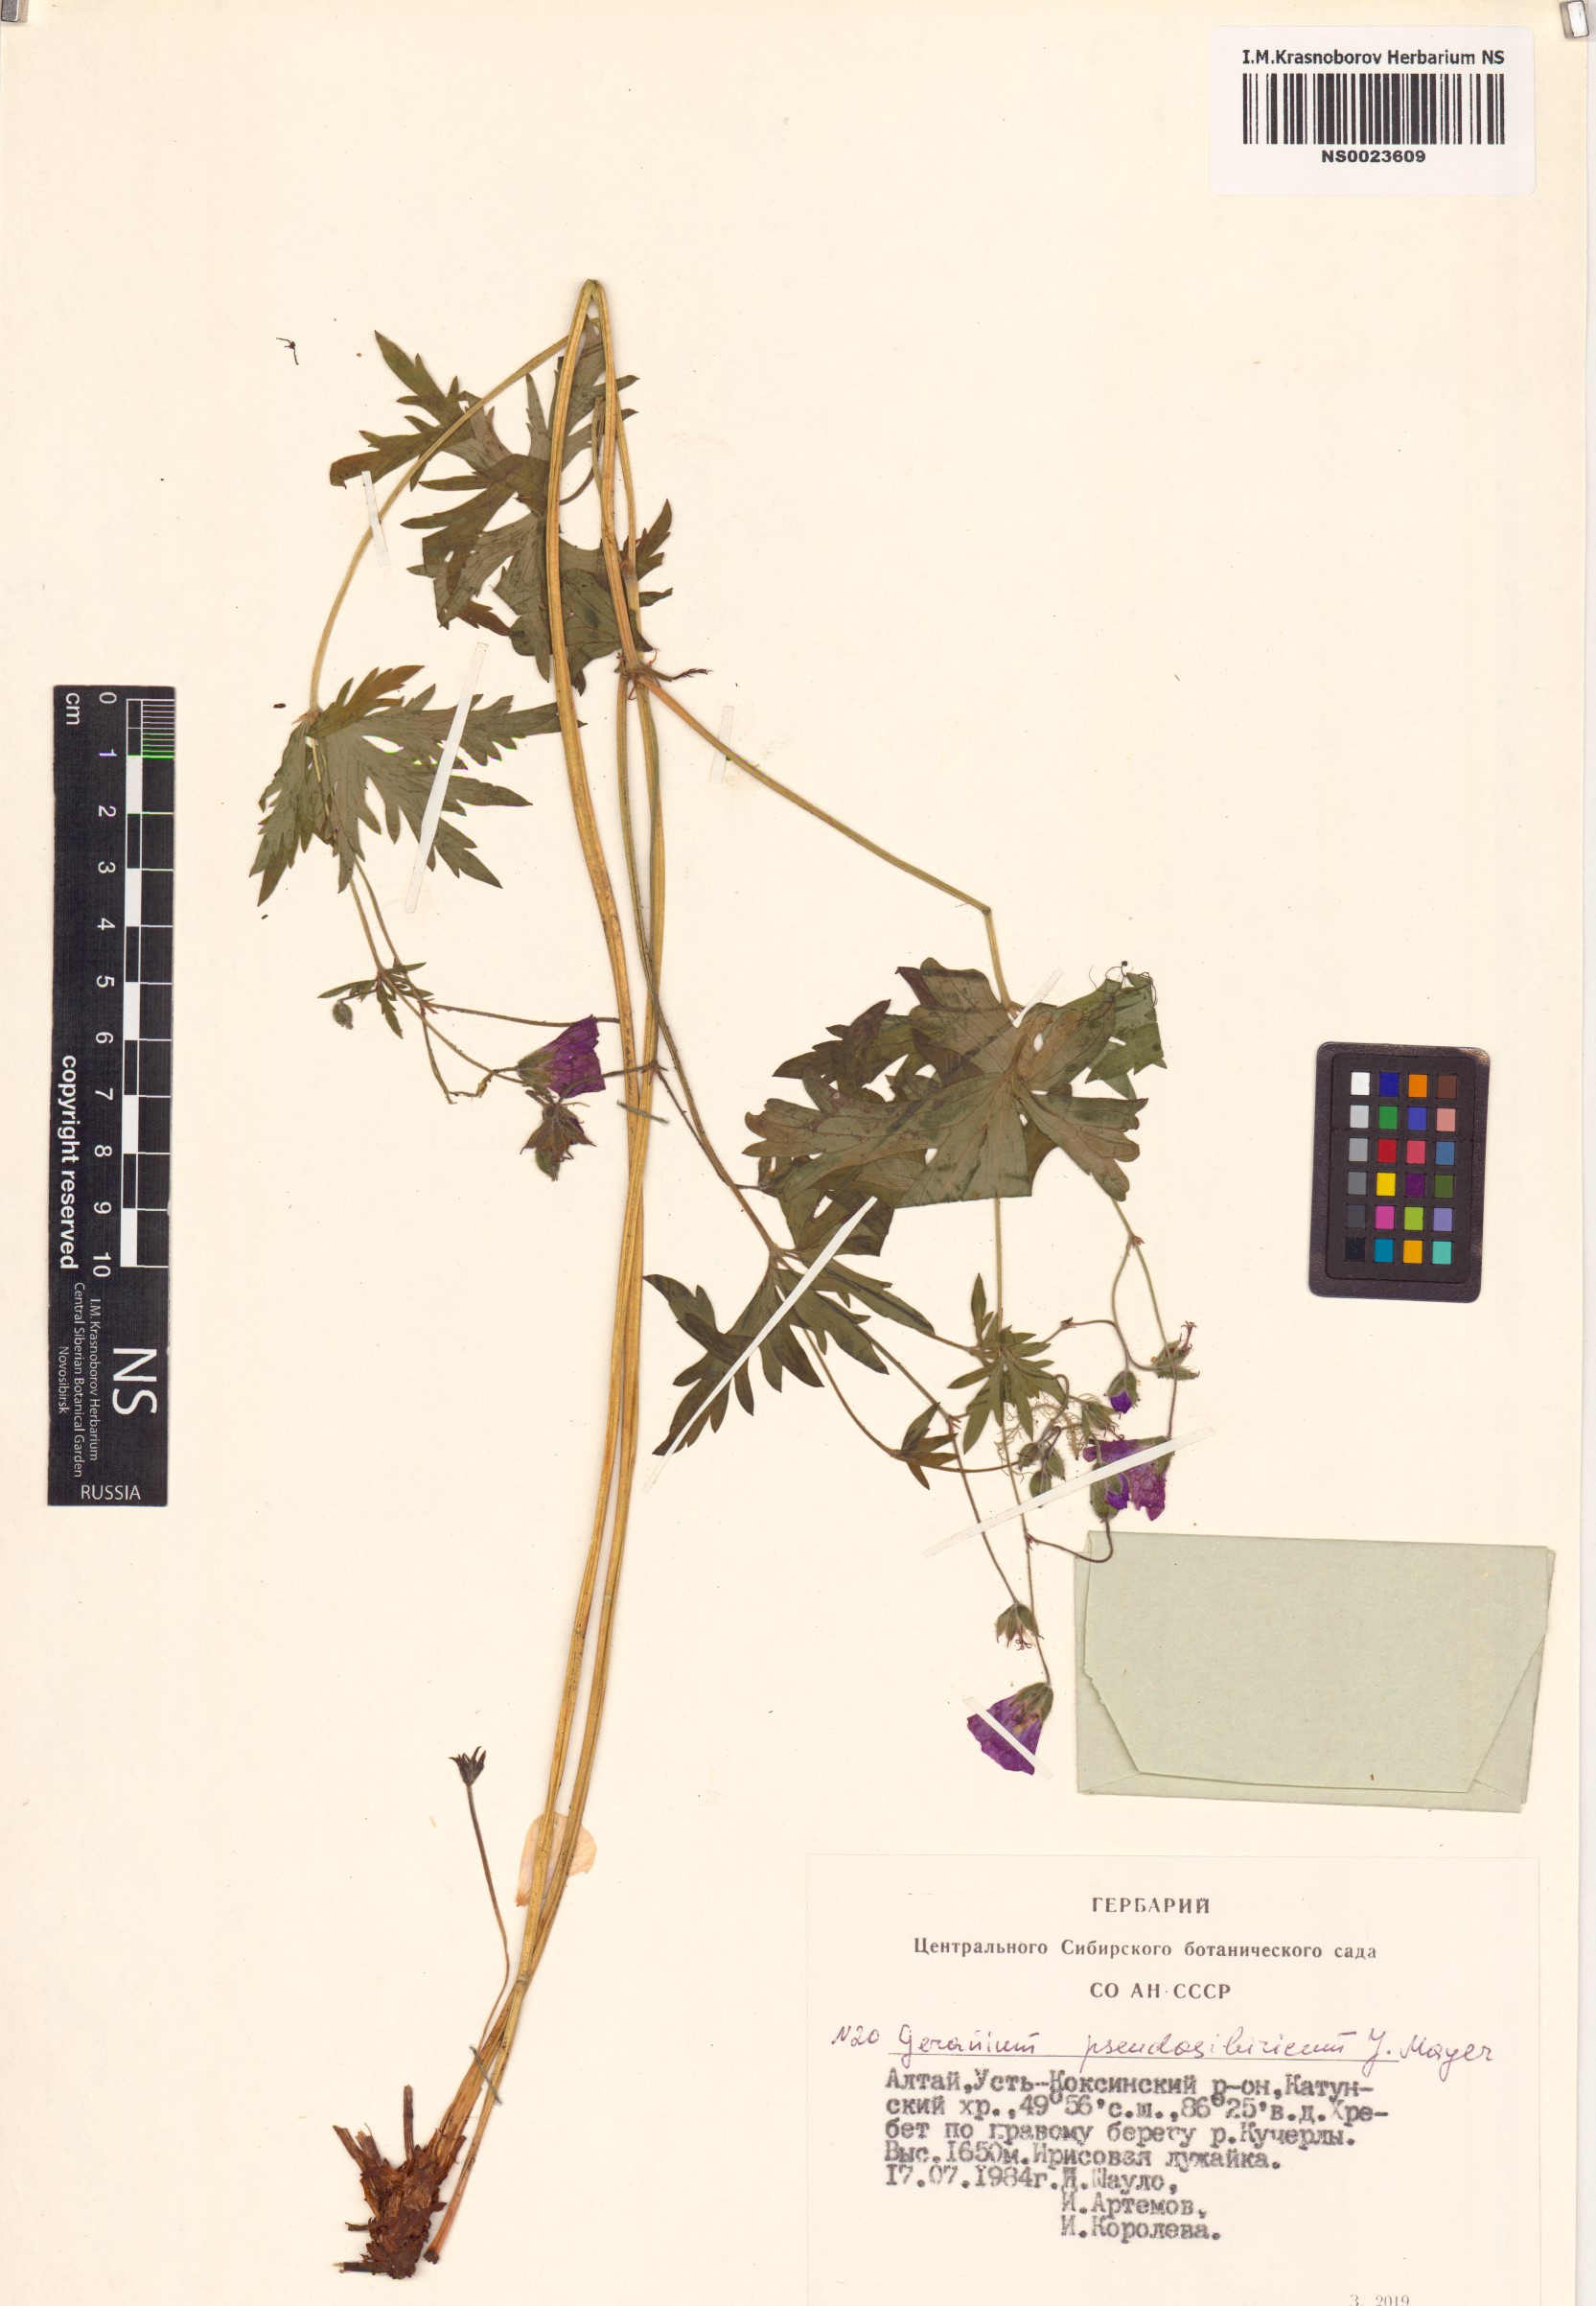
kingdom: Plantae
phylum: Tracheophyta
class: Magnoliopsida
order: Geraniales
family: Geraniaceae
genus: Geranium
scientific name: Geranium pseudosibiricum
